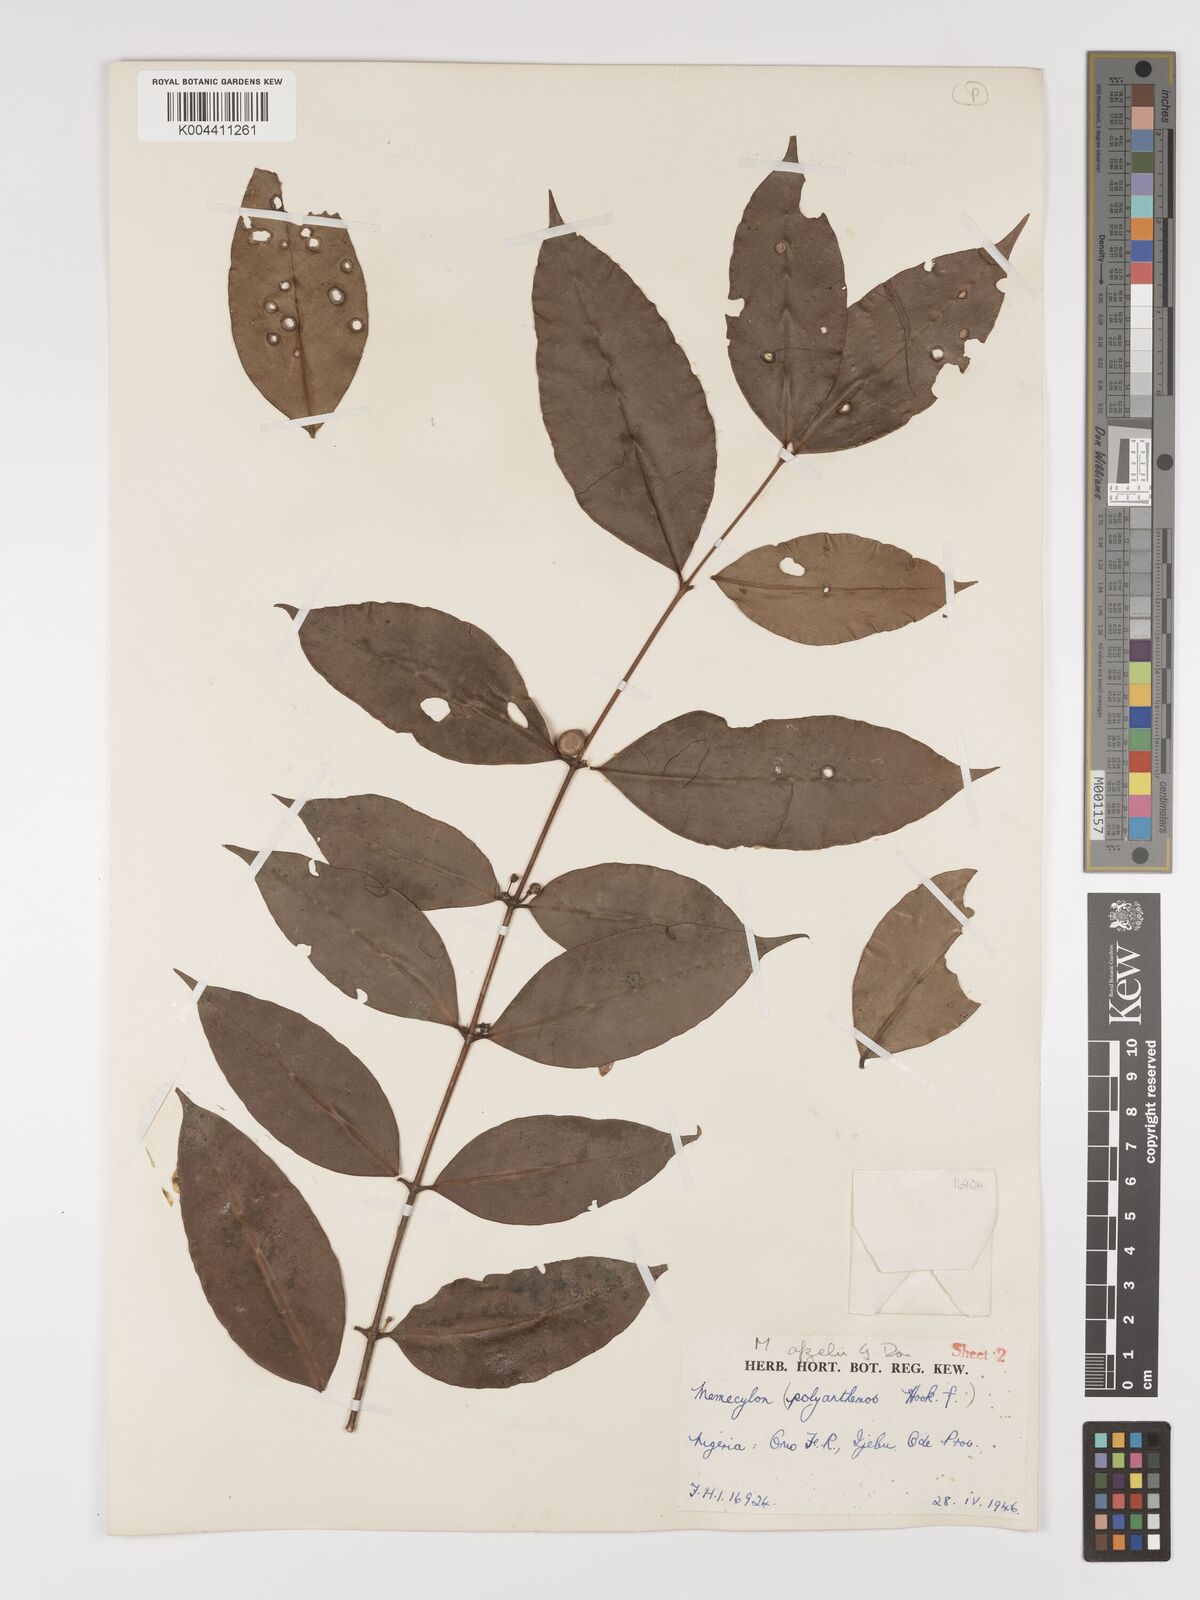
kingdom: Plantae
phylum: Tracheophyta
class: Magnoliopsida
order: Myrtales
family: Melastomataceae
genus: Memecylon
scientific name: Memecylon afzelii
